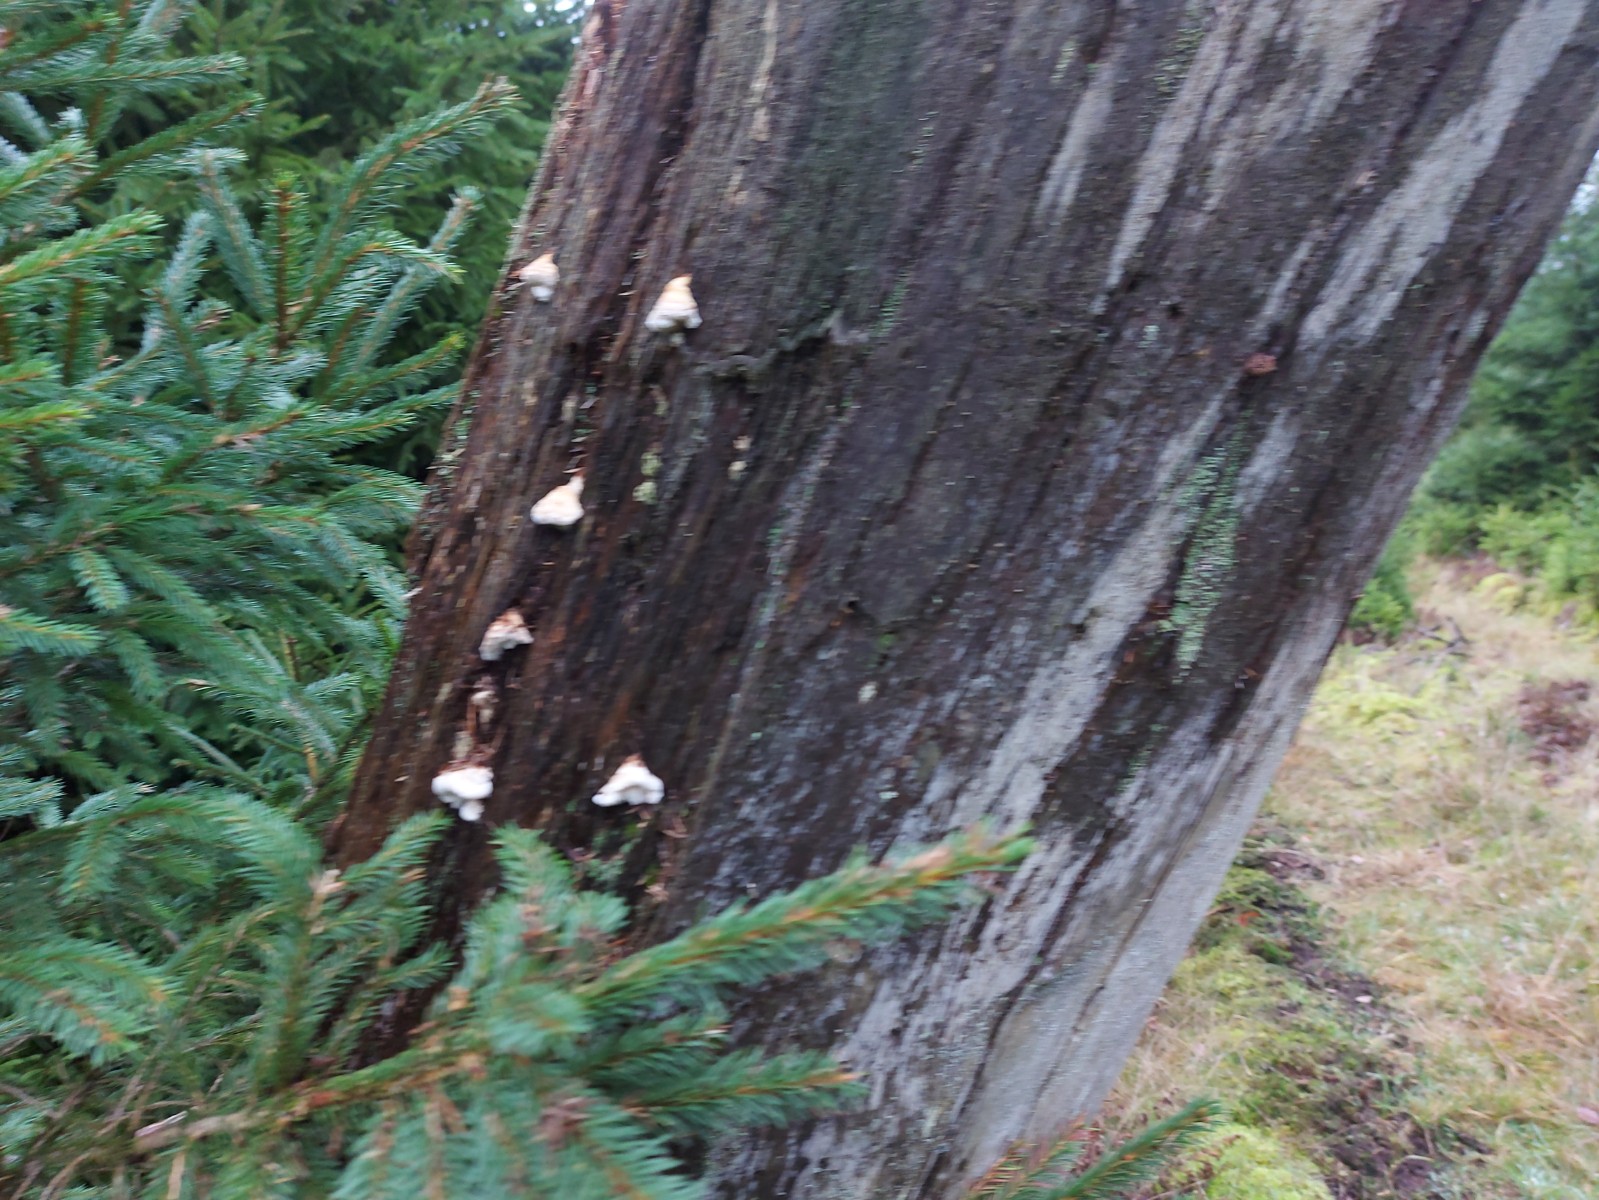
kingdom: Fungi
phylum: Basidiomycota
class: Agaricomycetes
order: Polyporales
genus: Fuscopostia
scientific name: Fuscopostia fragilis
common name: brunende kødporesvamp
